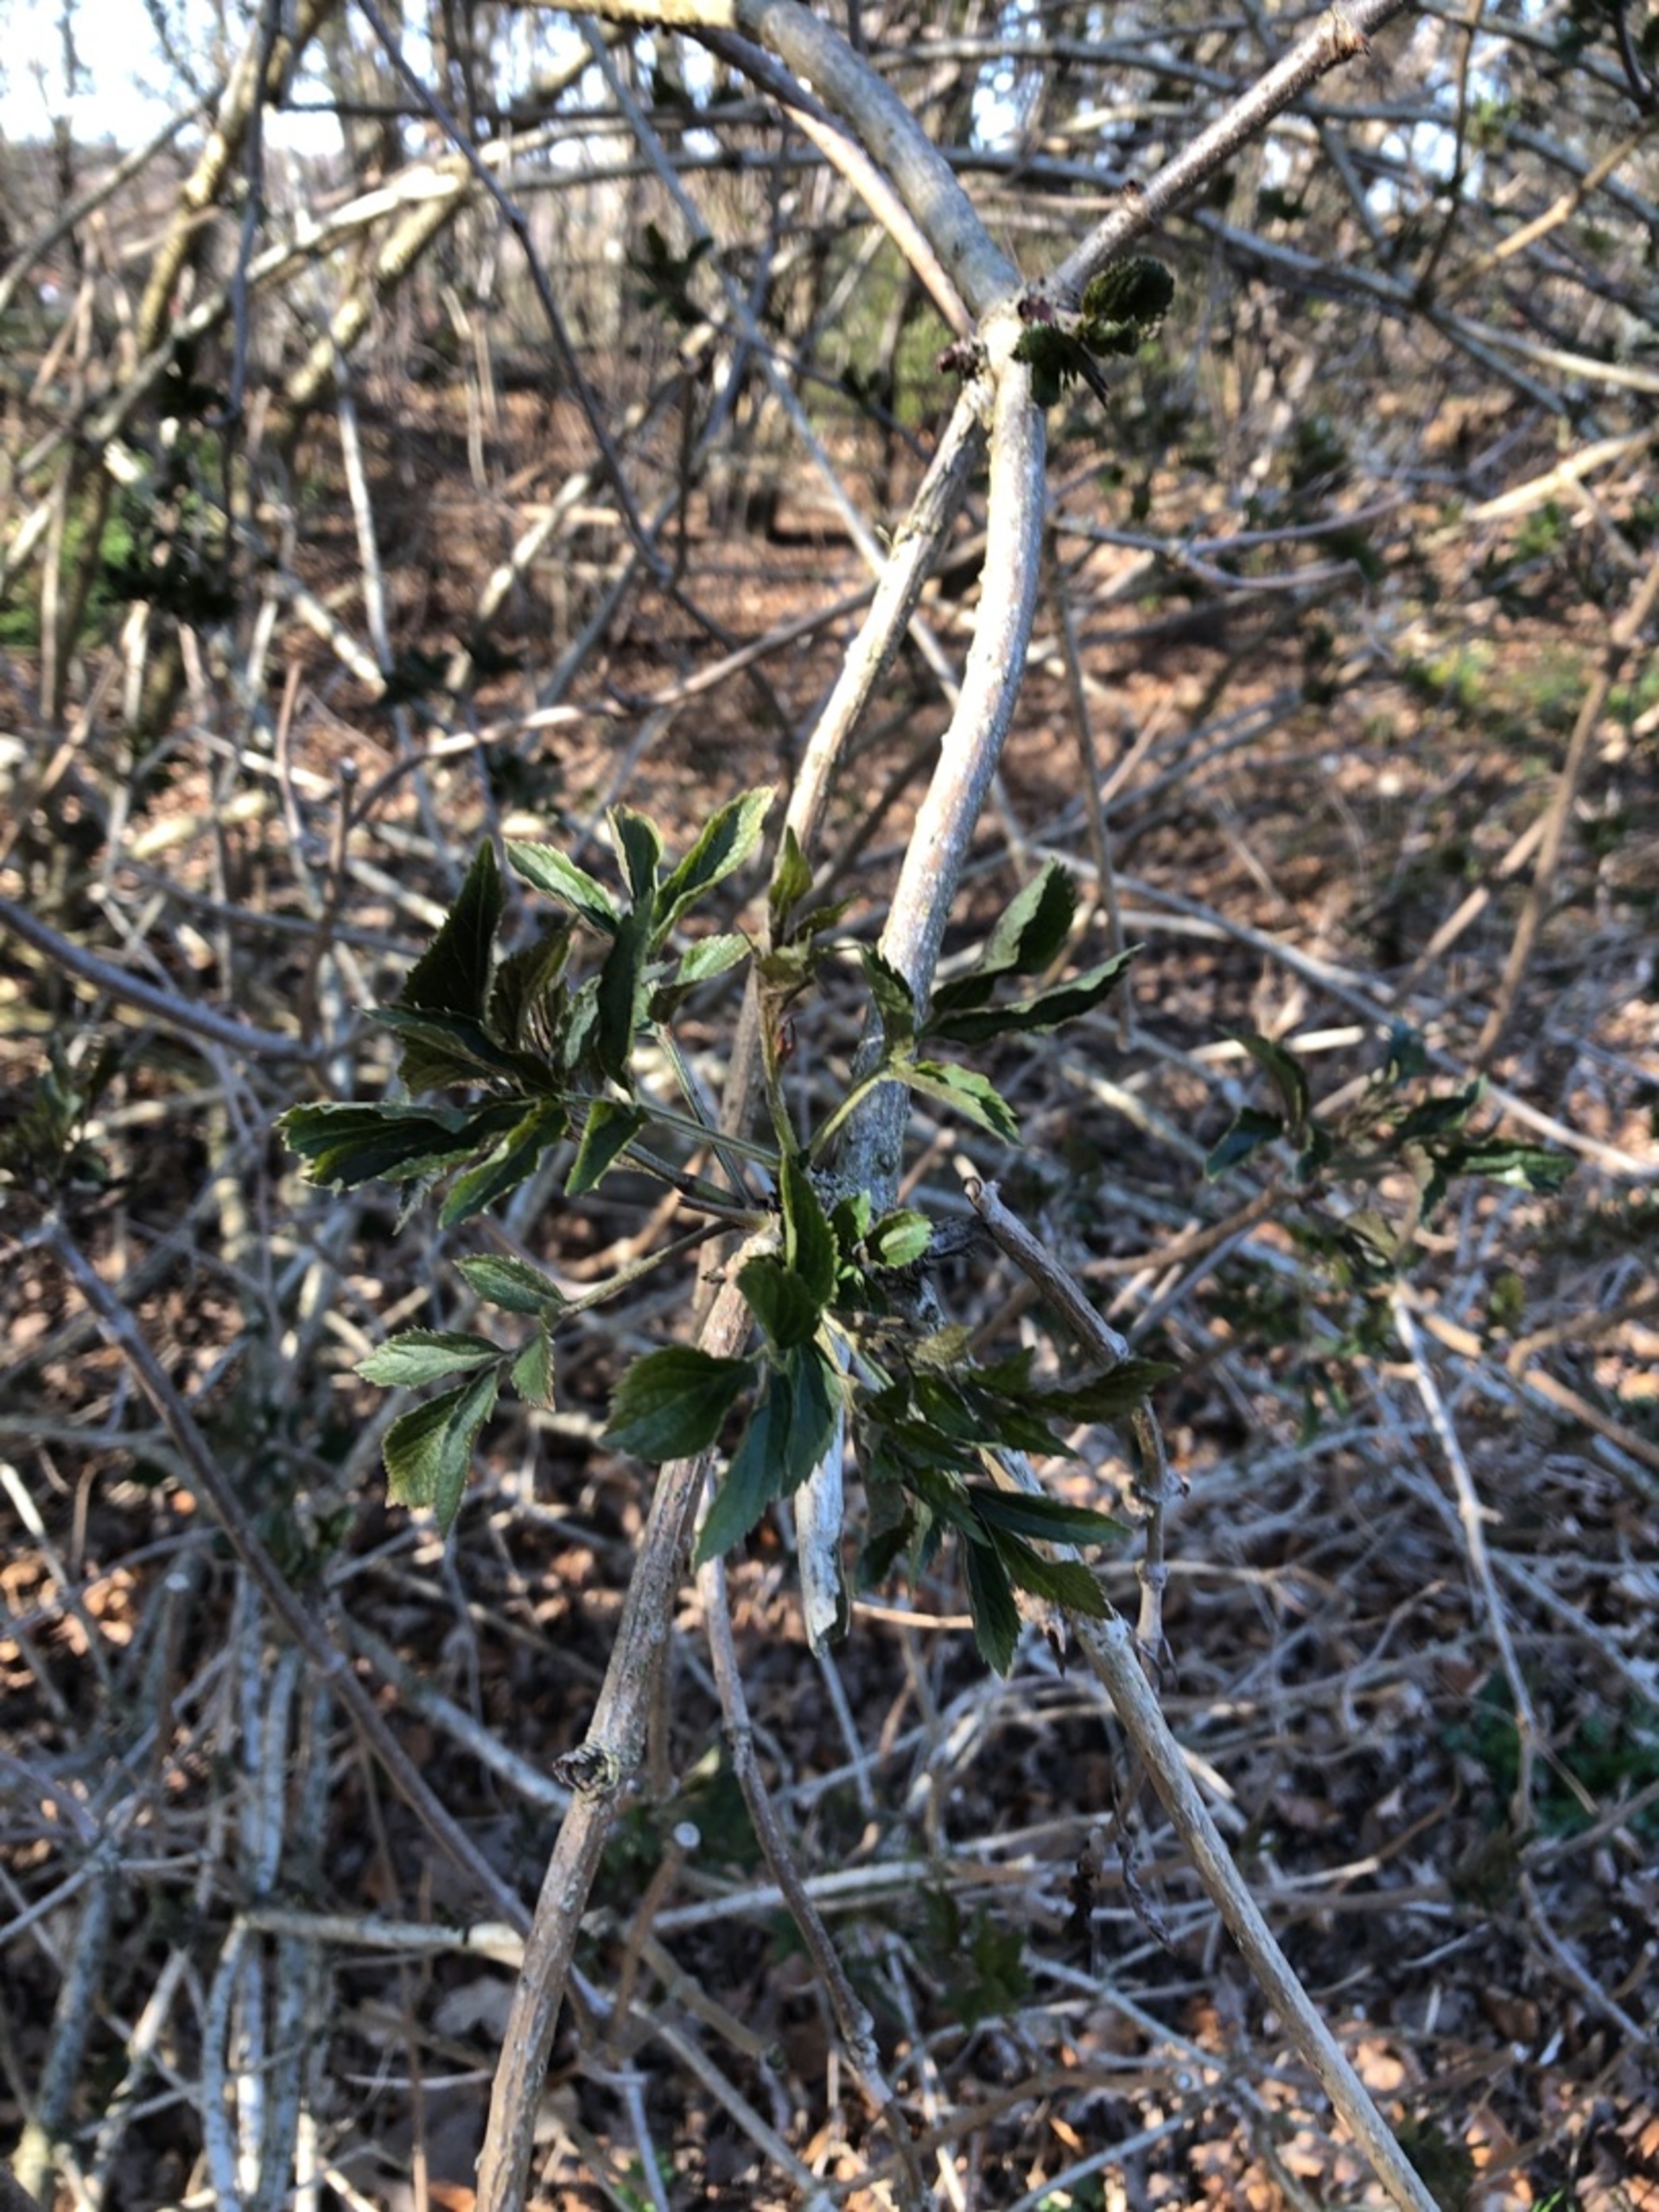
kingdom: Plantae
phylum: Tracheophyta
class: Magnoliopsida
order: Dipsacales
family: Viburnaceae
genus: Sambucus
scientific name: Sambucus
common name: Hyldeslægten
